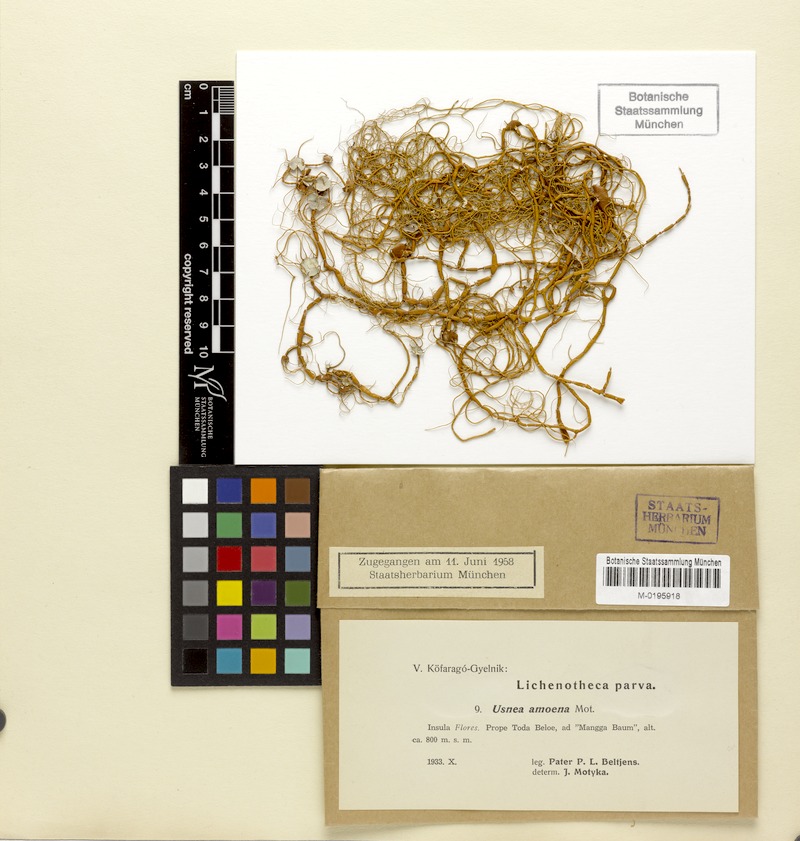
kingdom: Fungi
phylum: Ascomycota
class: Lecanoromycetes
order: Lecanorales
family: Parmeliaceae
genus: Usnea
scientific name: Usnea
